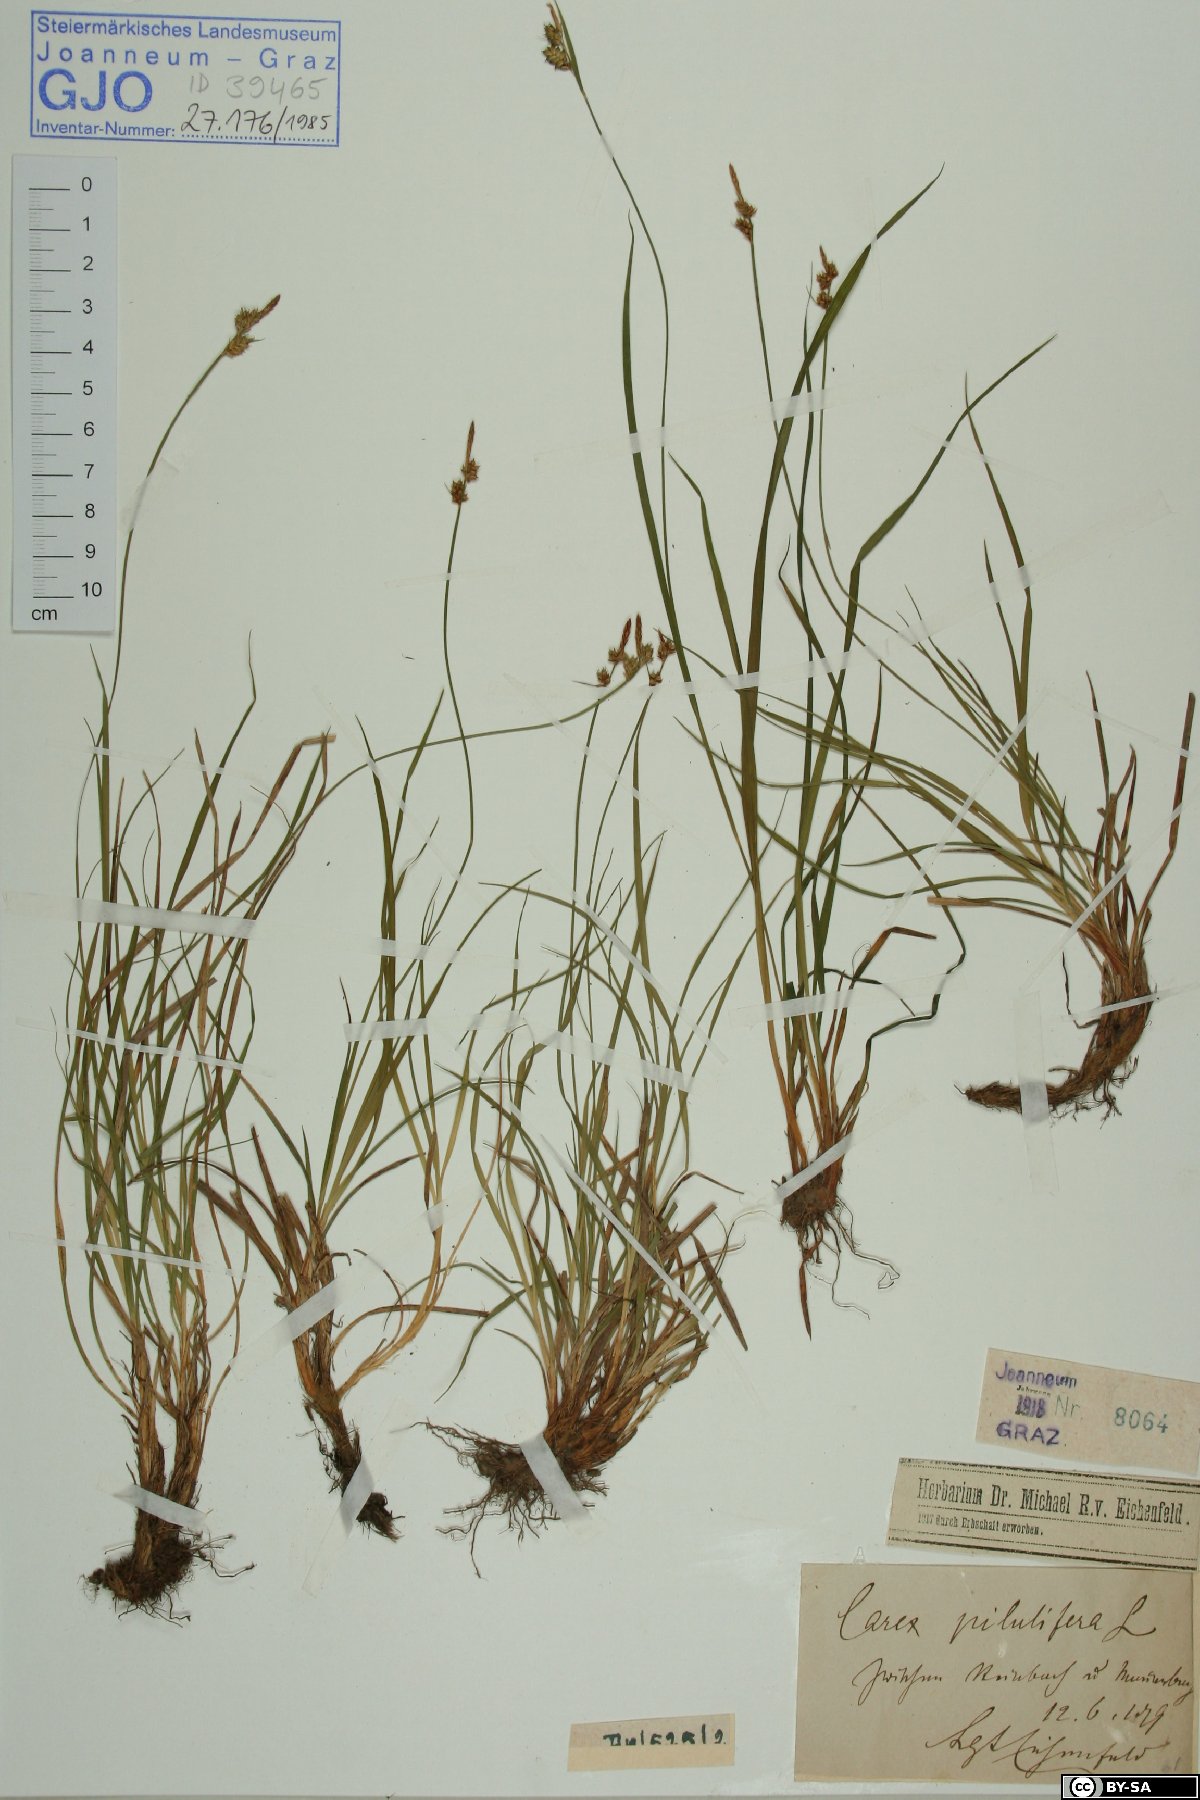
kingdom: Plantae
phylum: Tracheophyta
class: Liliopsida
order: Poales
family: Cyperaceae
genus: Carex
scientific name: Carex pilulifera
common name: Pill sedge
